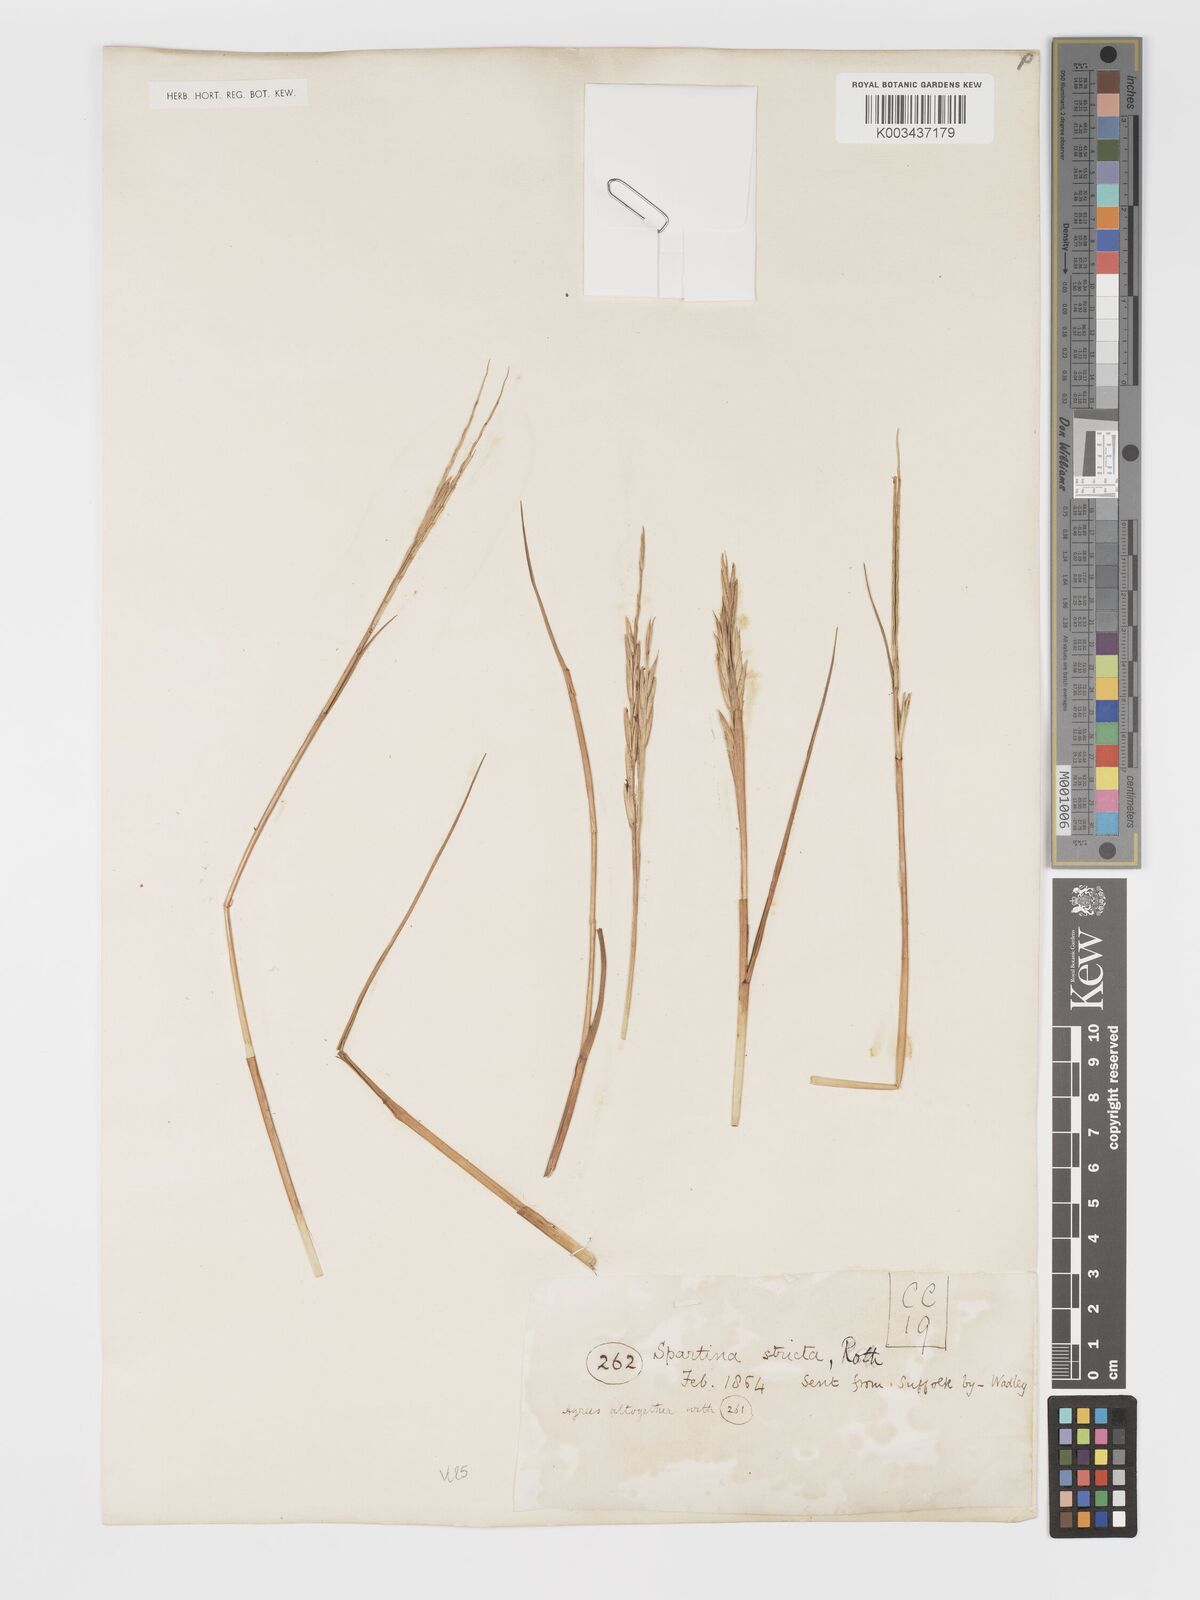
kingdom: Plantae
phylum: Tracheophyta
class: Liliopsida
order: Poales
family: Poaceae
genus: Sporobolus
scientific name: Sporobolus maritimus
